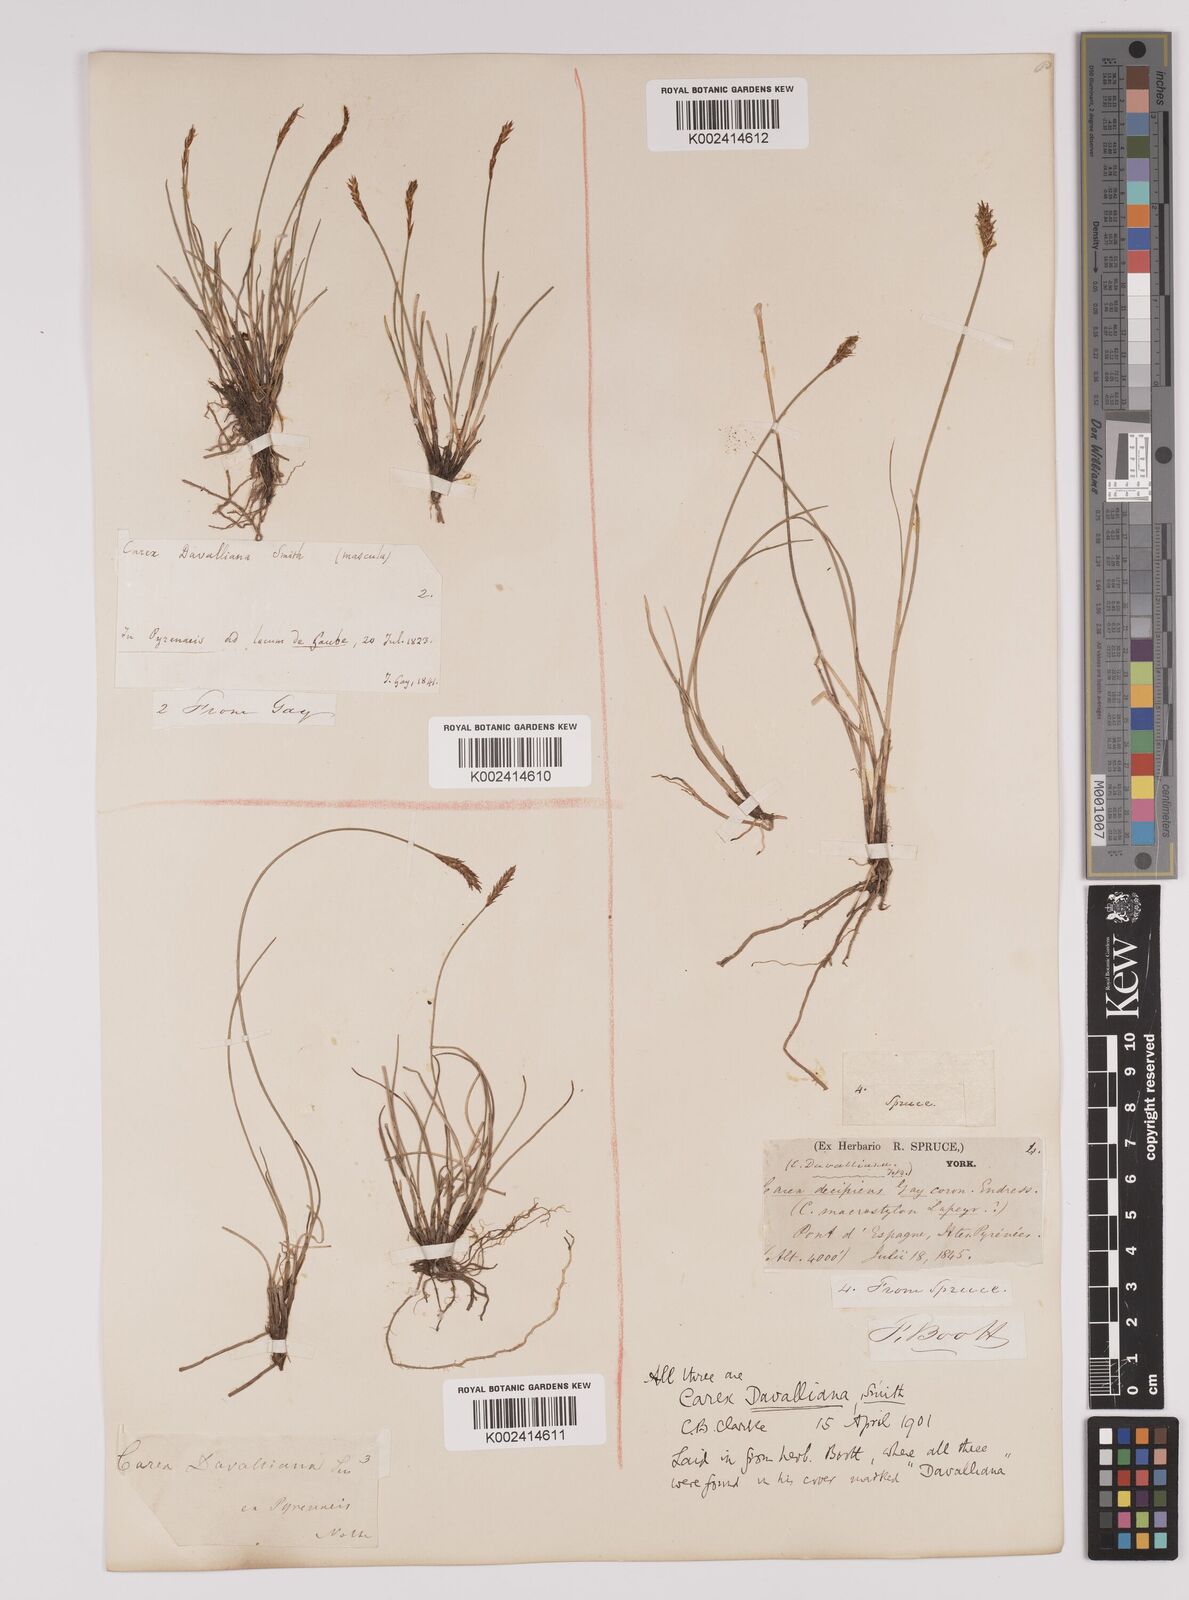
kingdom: Plantae
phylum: Tracheophyta
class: Liliopsida
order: Poales
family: Cyperaceae
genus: Carex
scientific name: Carex davalliana
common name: Davall's sedge
